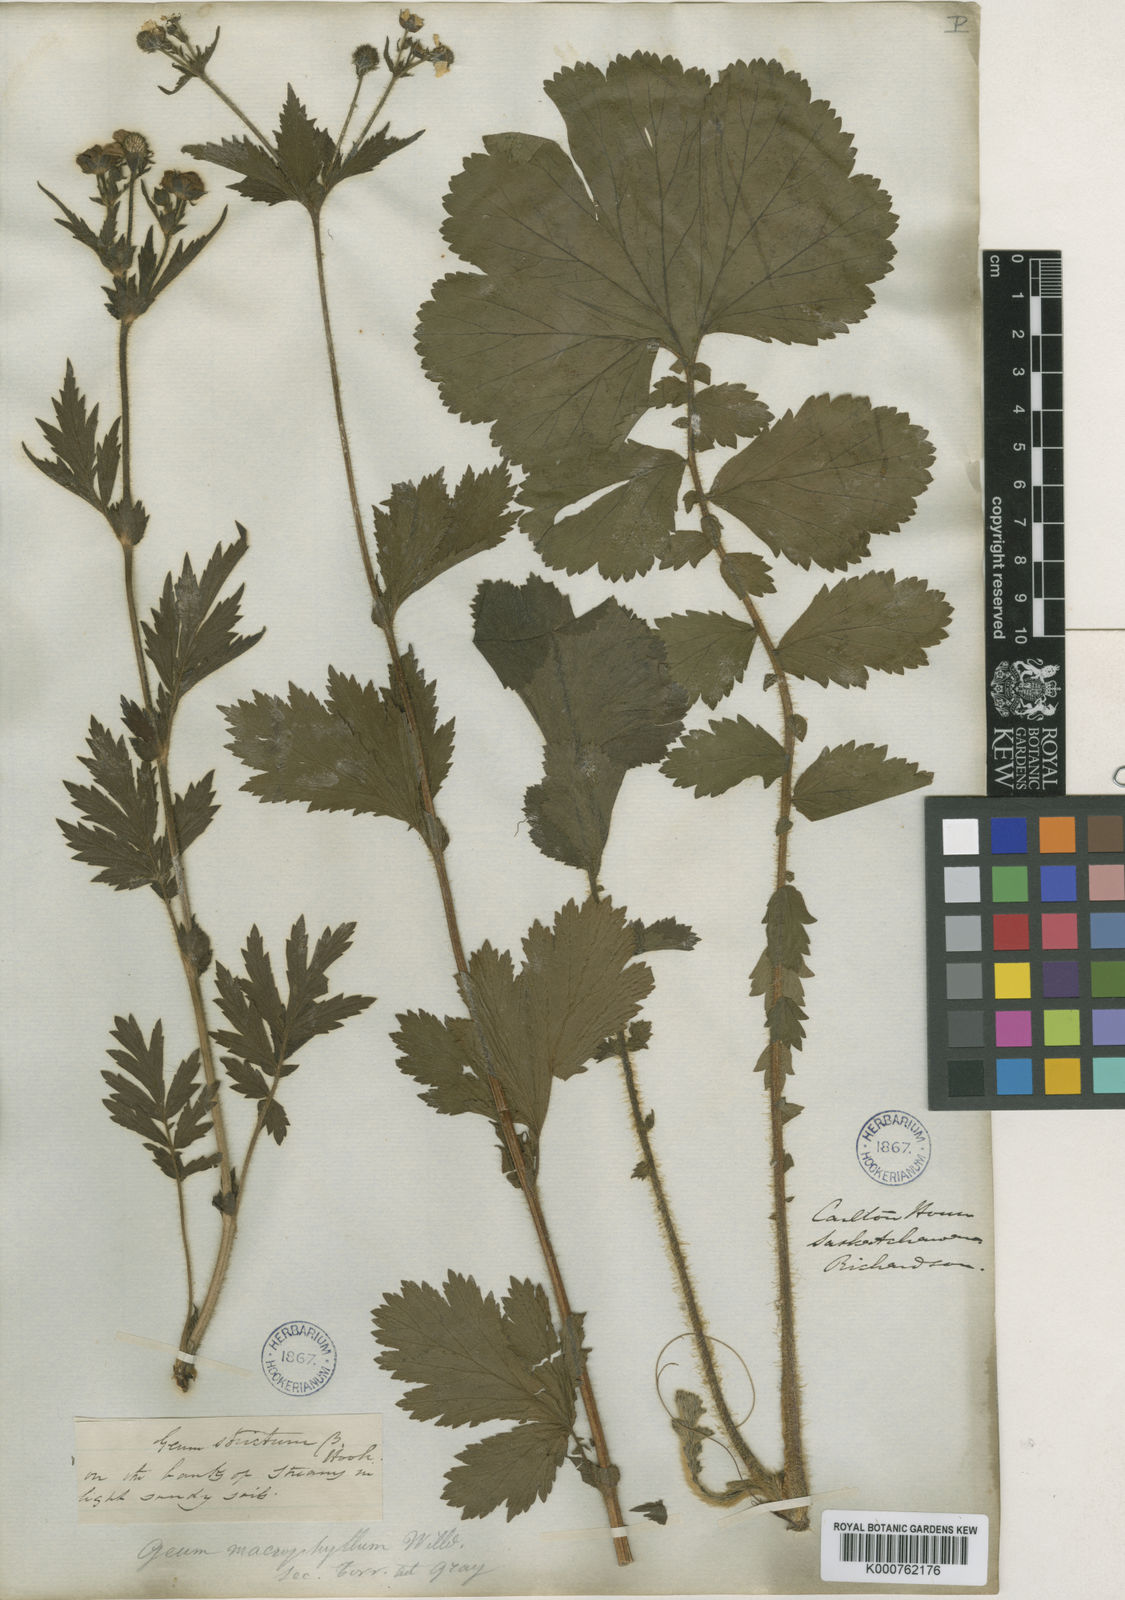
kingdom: Plantae
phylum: Tracheophyta
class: Magnoliopsida
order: Rosales
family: Rosaceae
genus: Geum
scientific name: Geum macrophyllum
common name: Large-leaved avens
